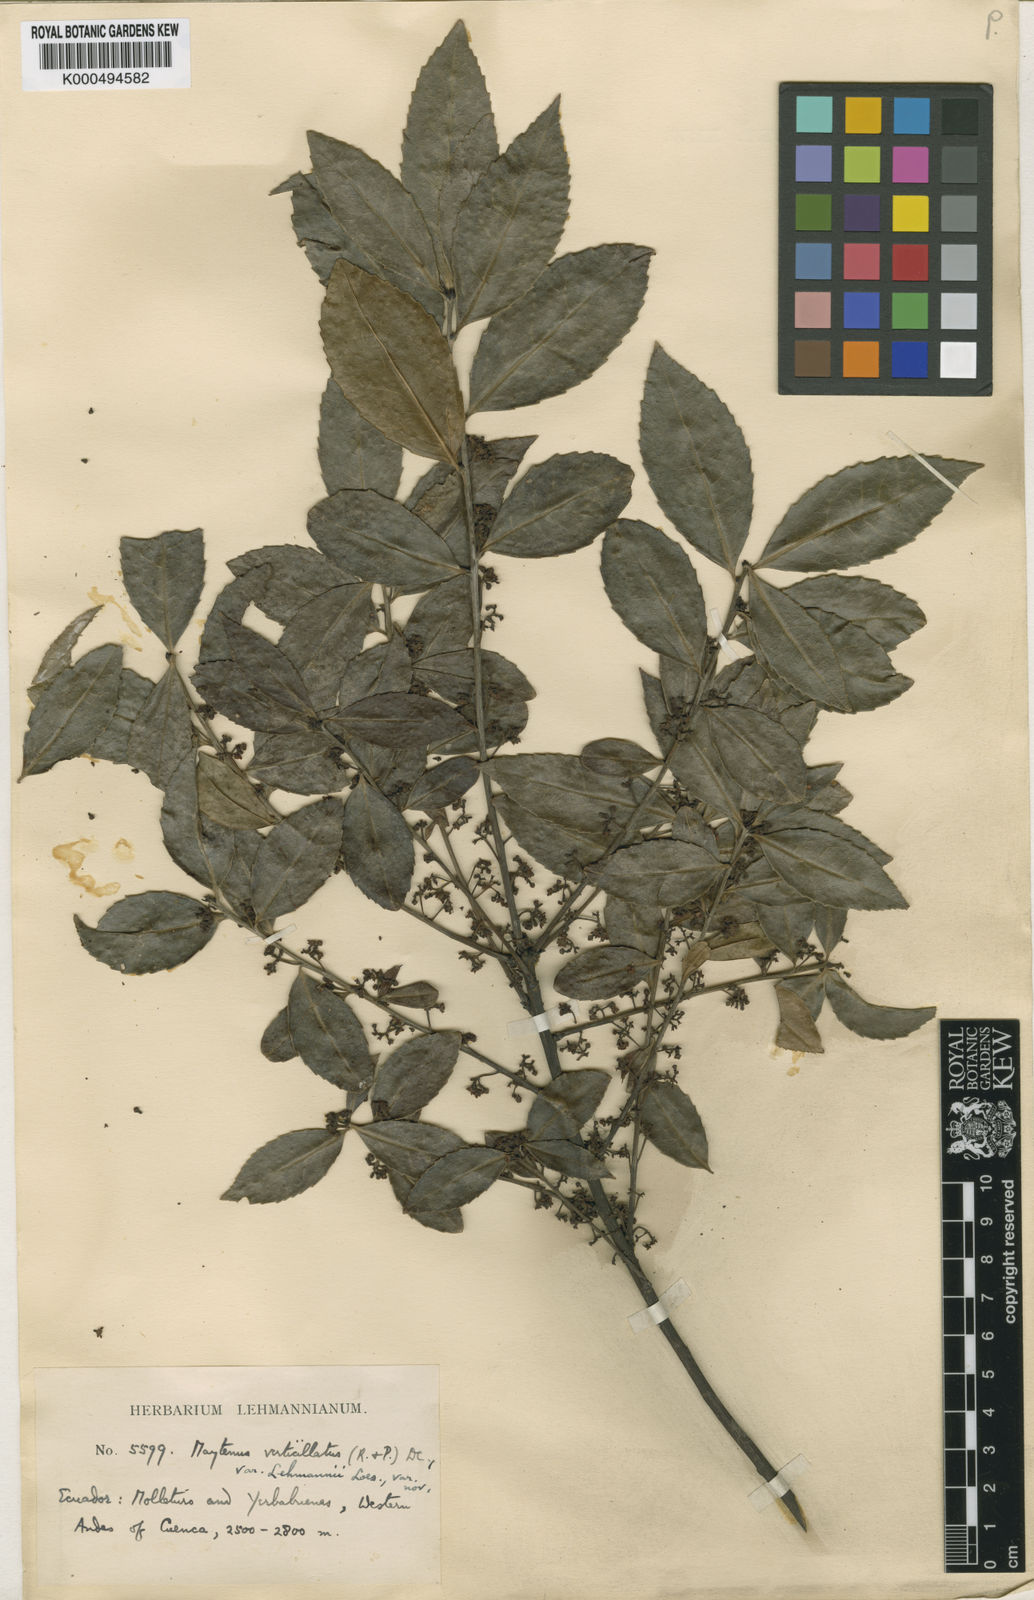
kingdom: Plantae
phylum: Tracheophyta
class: Magnoliopsida
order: Celastrales
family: Celastraceae
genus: Maytenus
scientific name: Maytenus verticillata
